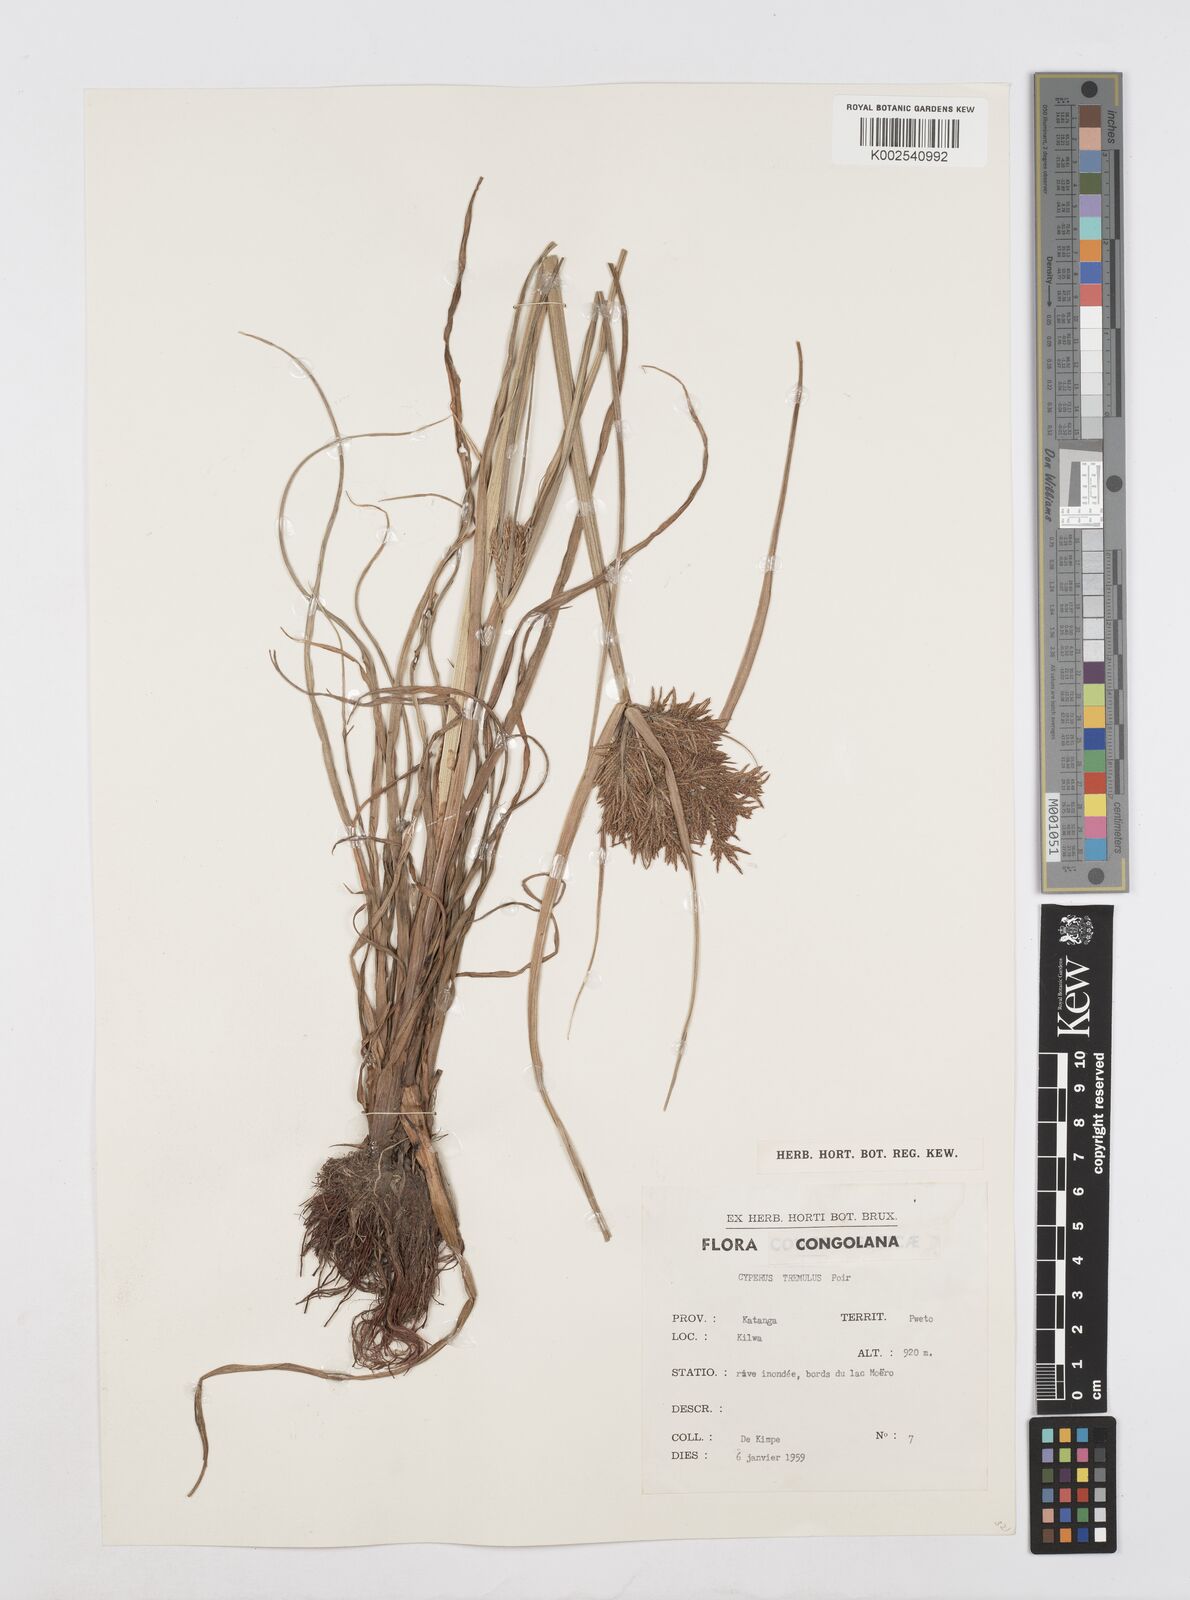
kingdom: Plantae
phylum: Tracheophyta
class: Liliopsida
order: Poales
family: Cyperaceae
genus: Cyperus
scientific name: Cyperus macrostachyos
